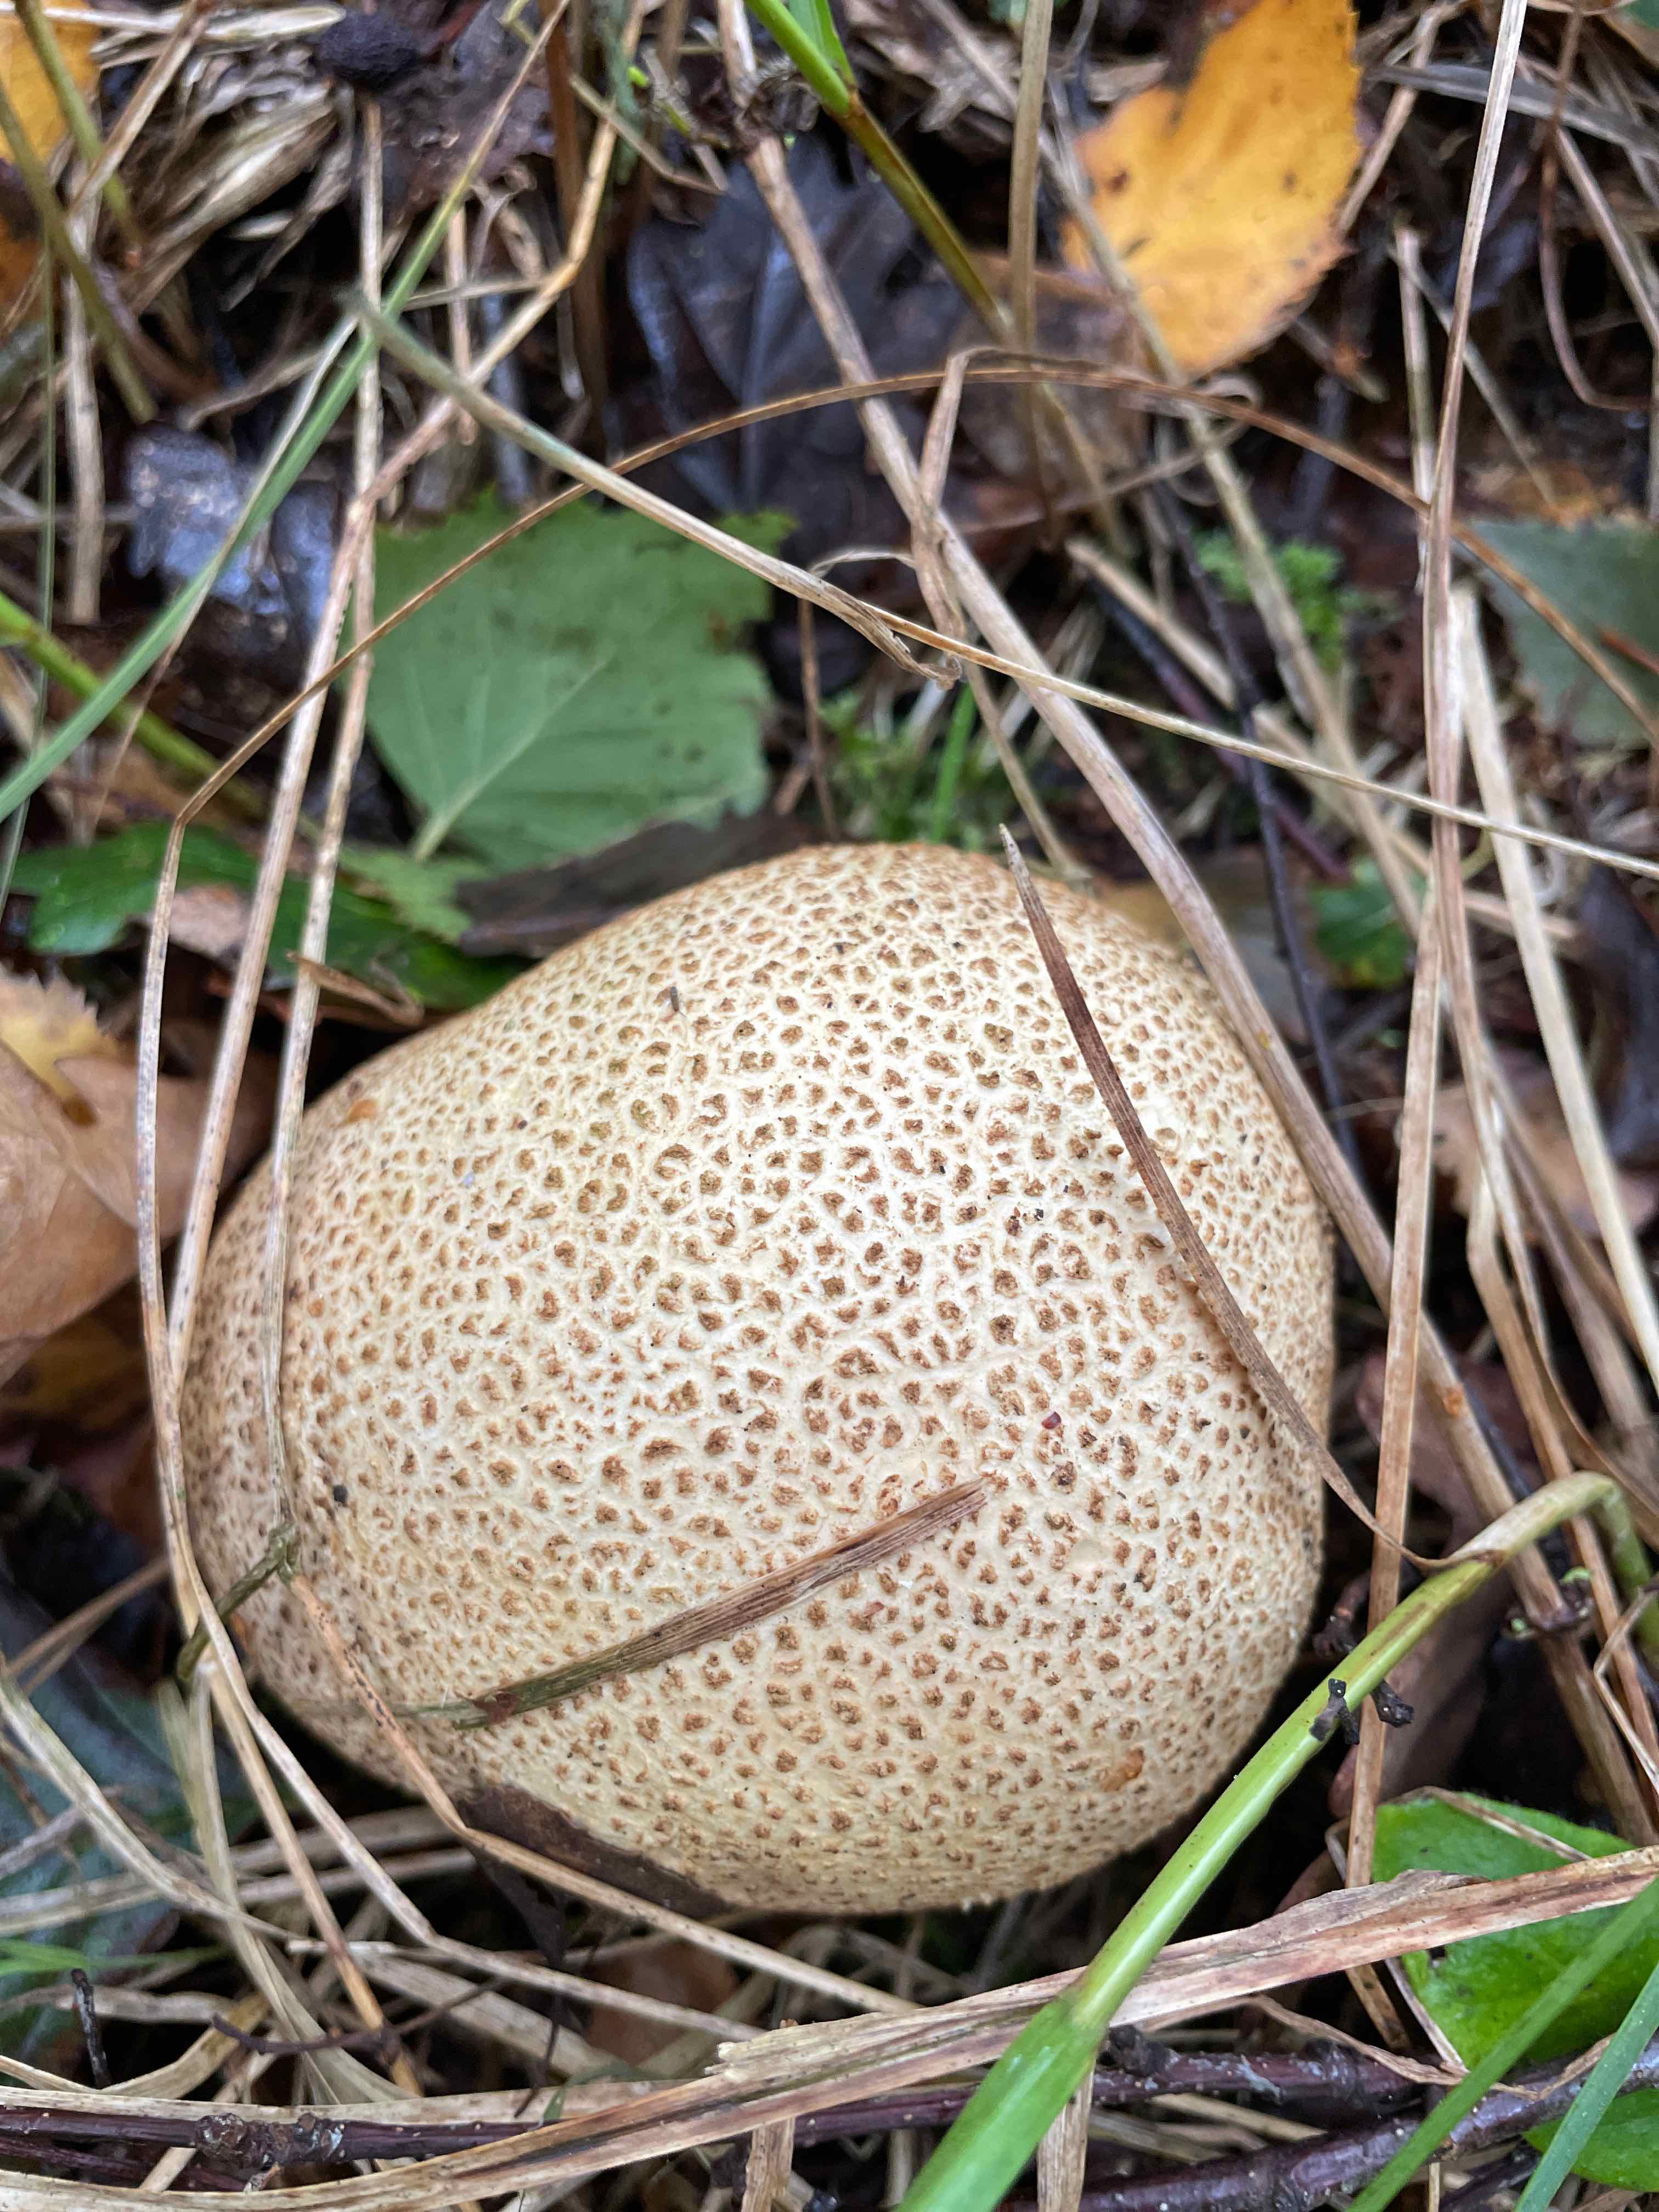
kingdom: Fungi
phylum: Basidiomycota
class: Agaricomycetes
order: Boletales
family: Sclerodermataceae
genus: Scleroderma
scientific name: Scleroderma citrinum
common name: almindelig bruskbold
